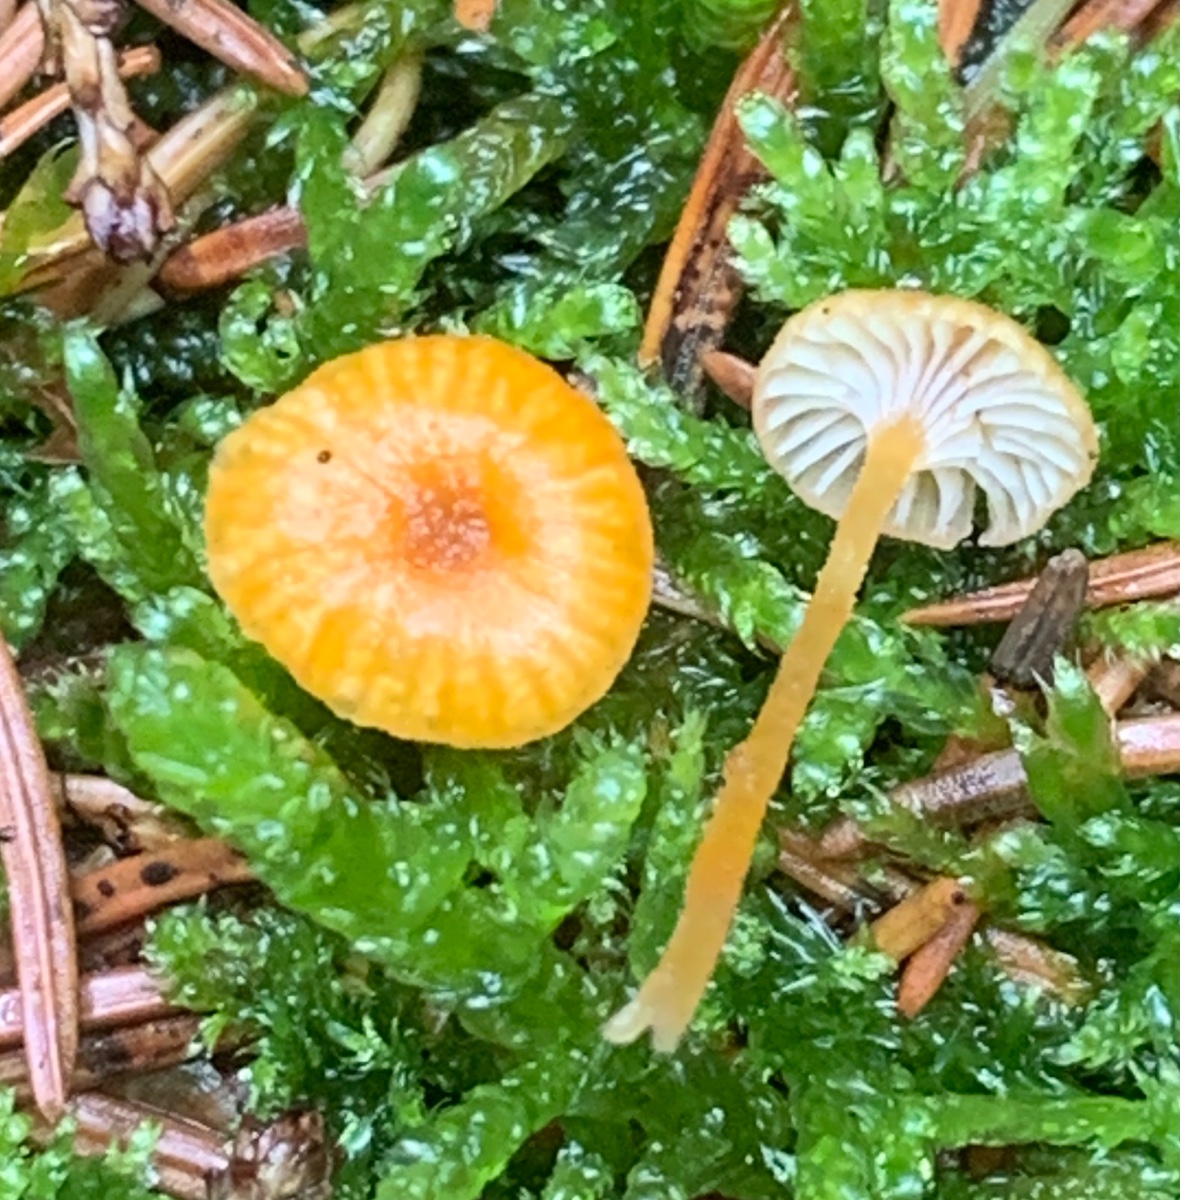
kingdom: Fungi
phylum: Basidiomycota
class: Agaricomycetes
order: Hymenochaetales
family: Rickenellaceae
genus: Rickenella
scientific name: Rickenella fibula
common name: orange mosnavlehat
